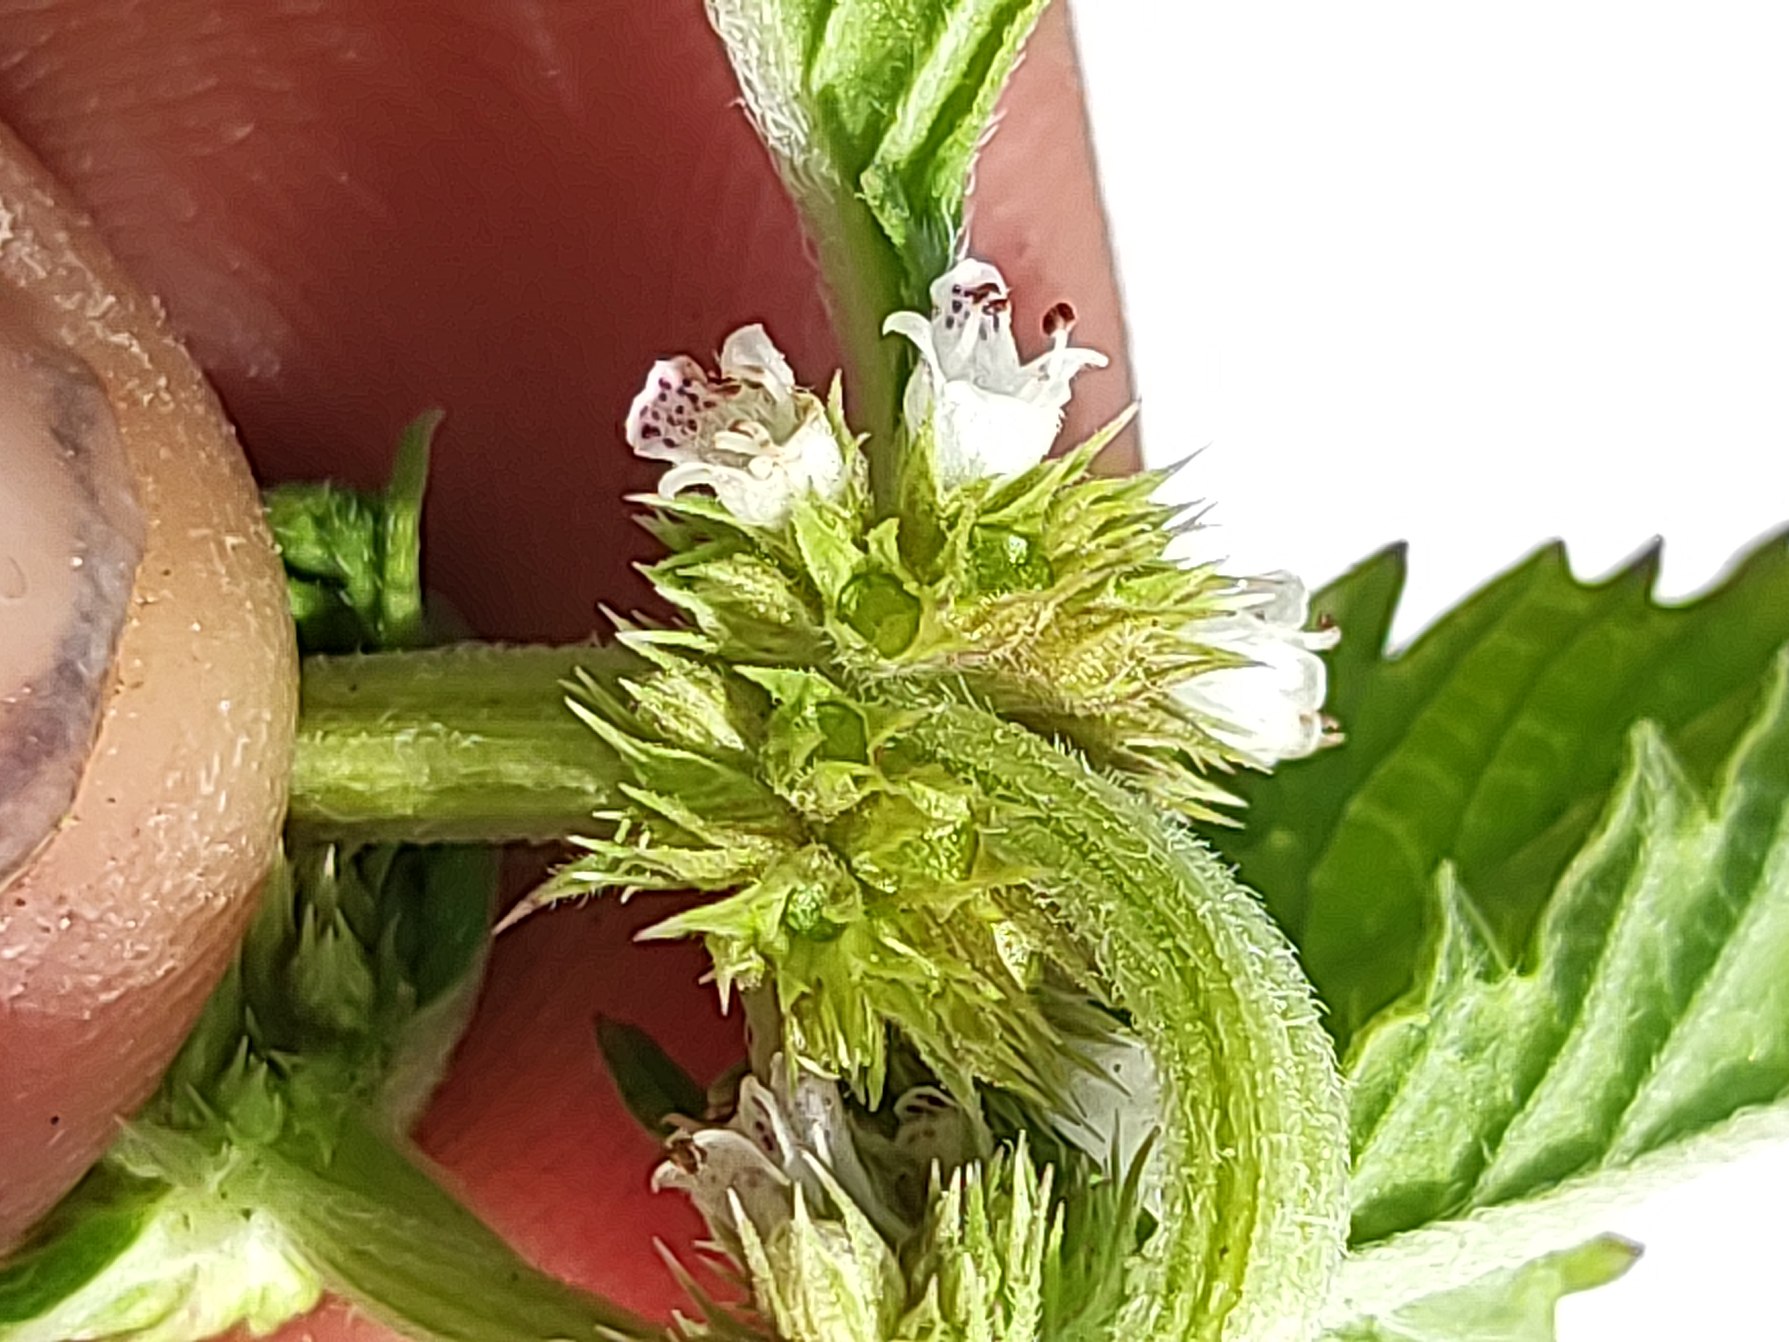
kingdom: Plantae
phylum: Tracheophyta
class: Magnoliopsida
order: Lamiales
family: Lamiaceae
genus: Lycopus
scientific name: Lycopus europaeus
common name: Sværtevæld
